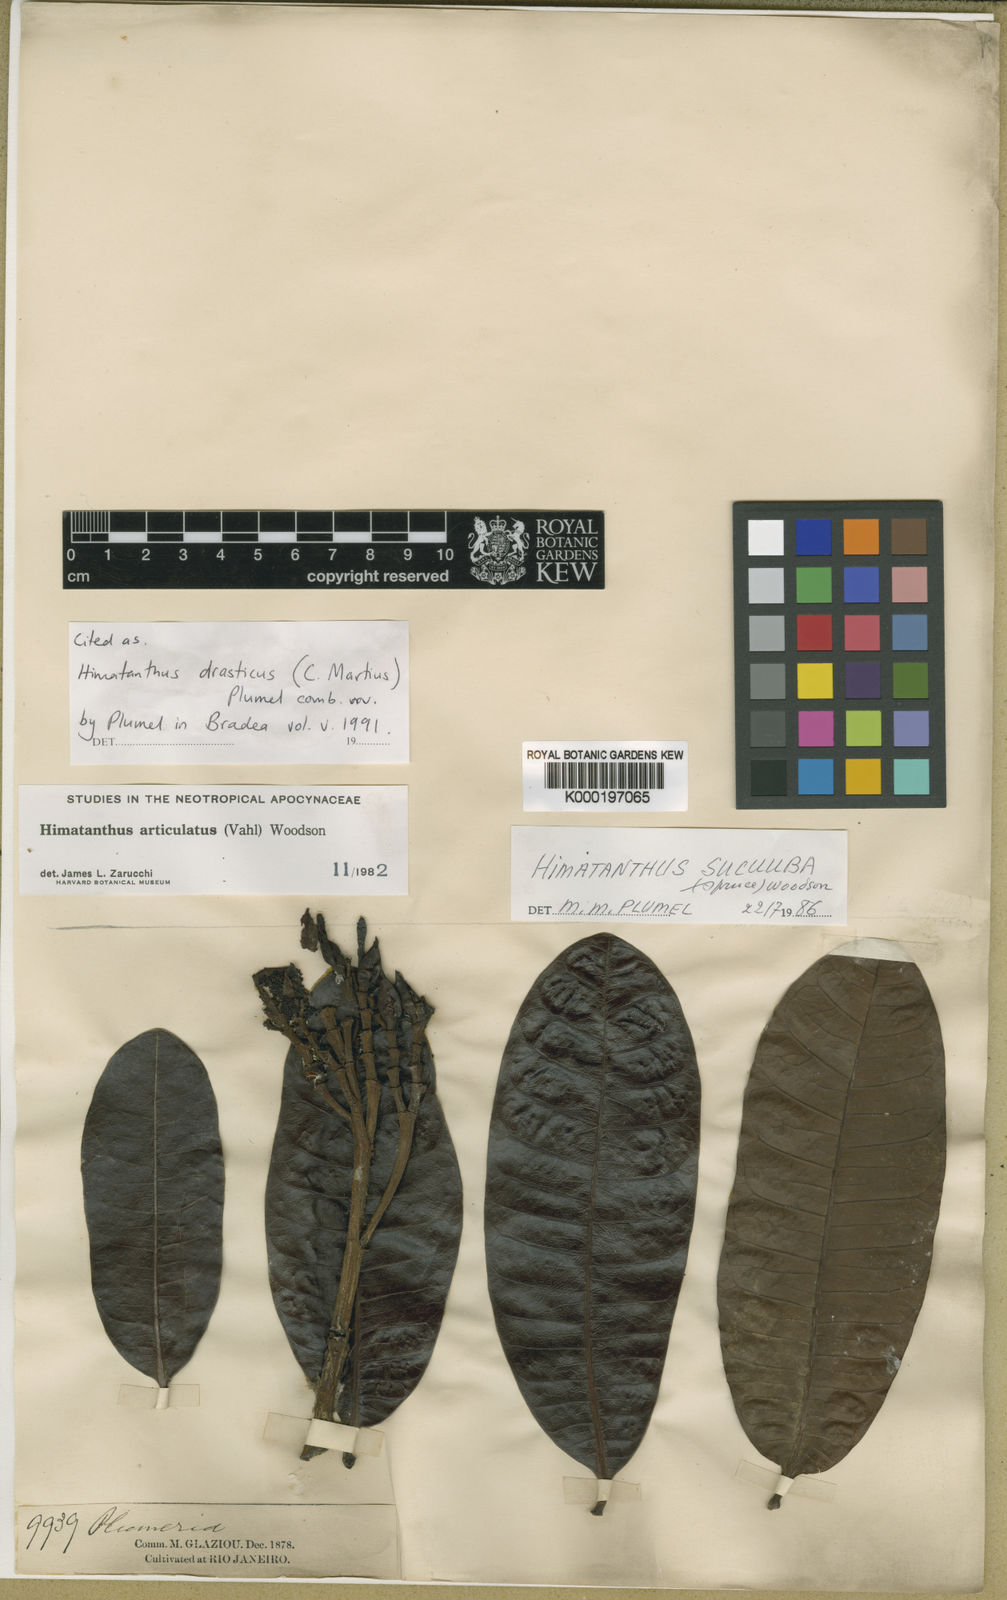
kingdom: Plantae
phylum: Tracheophyta
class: Magnoliopsida
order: Gentianales
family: Apocynaceae
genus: Himatanthus
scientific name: Himatanthus drasticus
